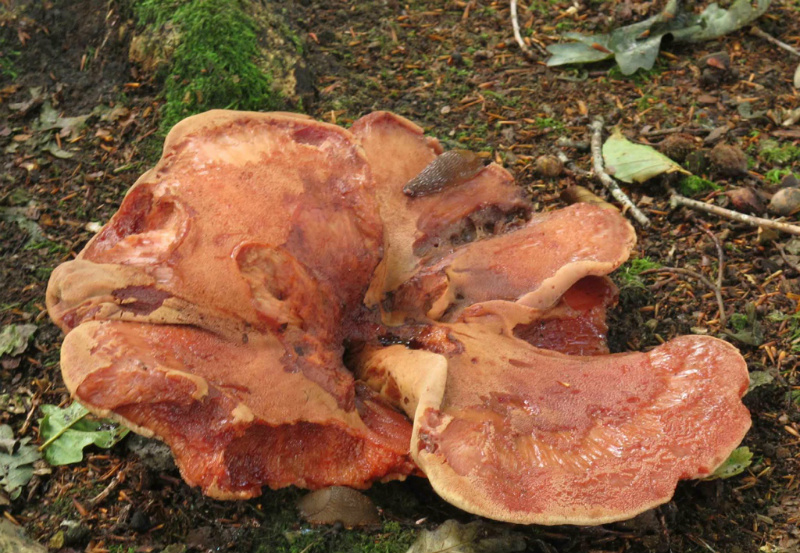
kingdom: Fungi
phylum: Basidiomycota
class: Agaricomycetes
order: Agaricales
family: Fistulinaceae
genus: Fistulina
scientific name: Fistulina hepatica
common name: oksetunge
